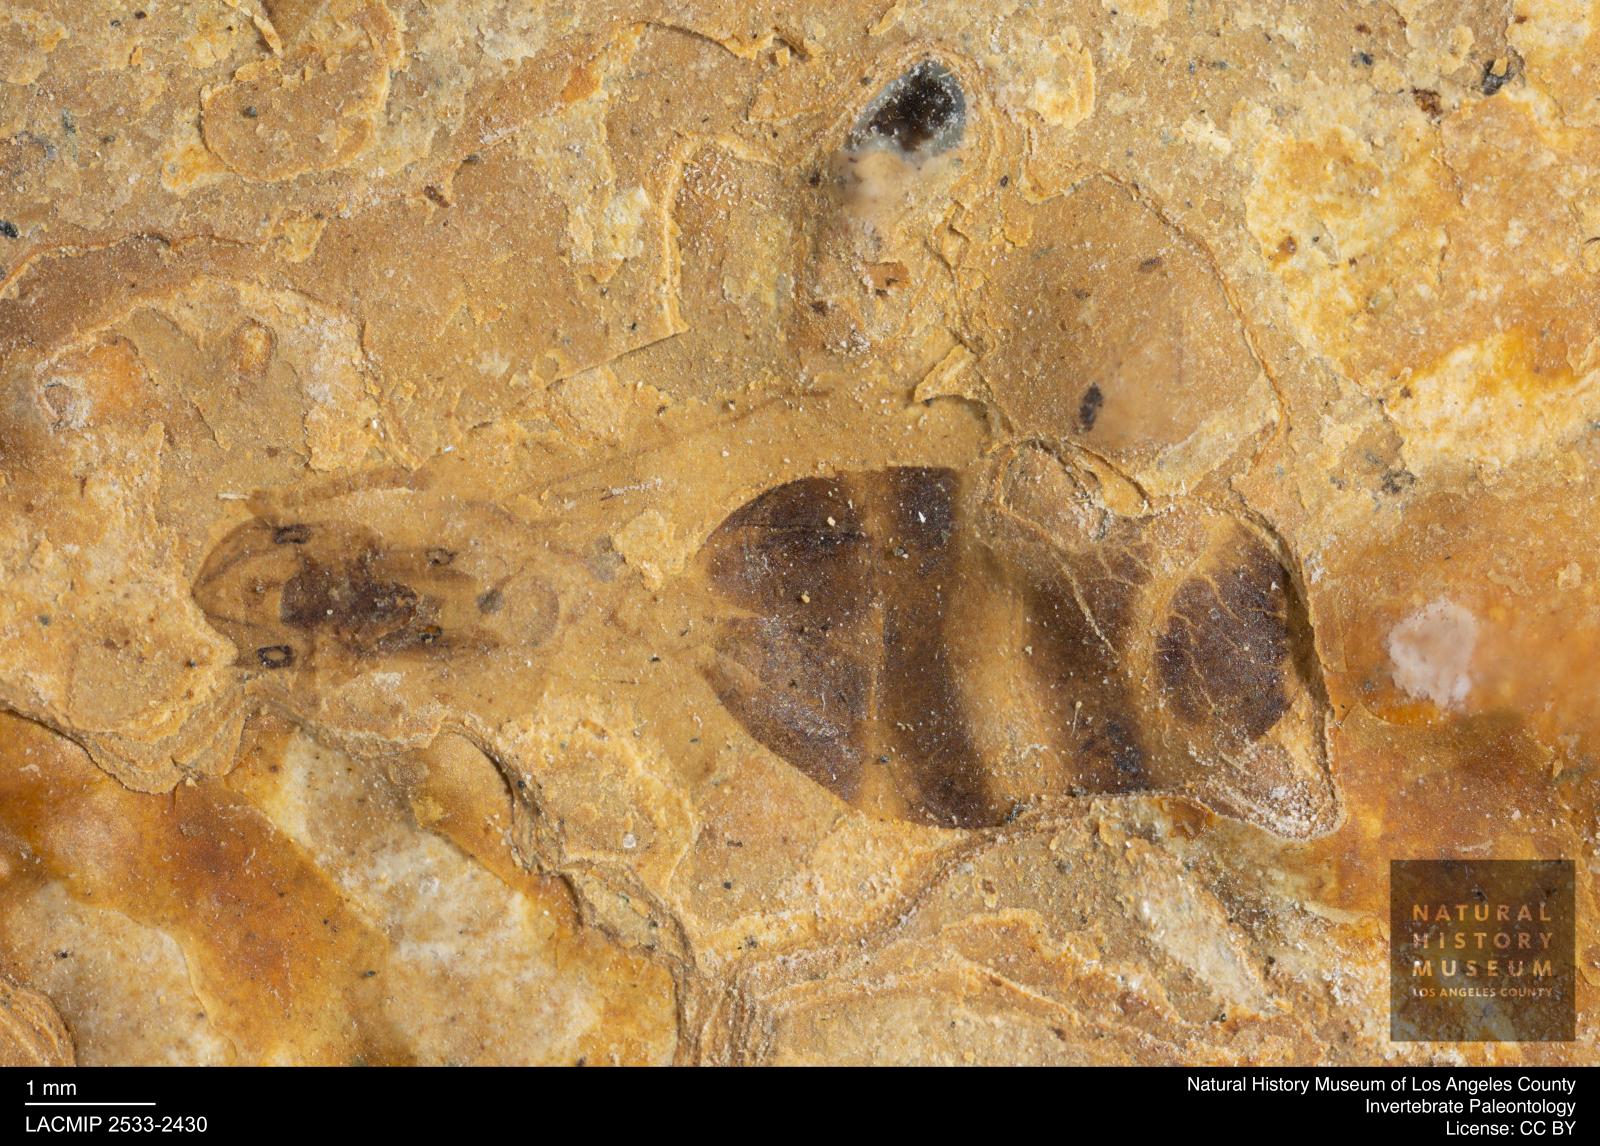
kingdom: Animalia
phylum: Arthropoda
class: Insecta
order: Hymenoptera
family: Formicidae
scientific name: Formicidae
